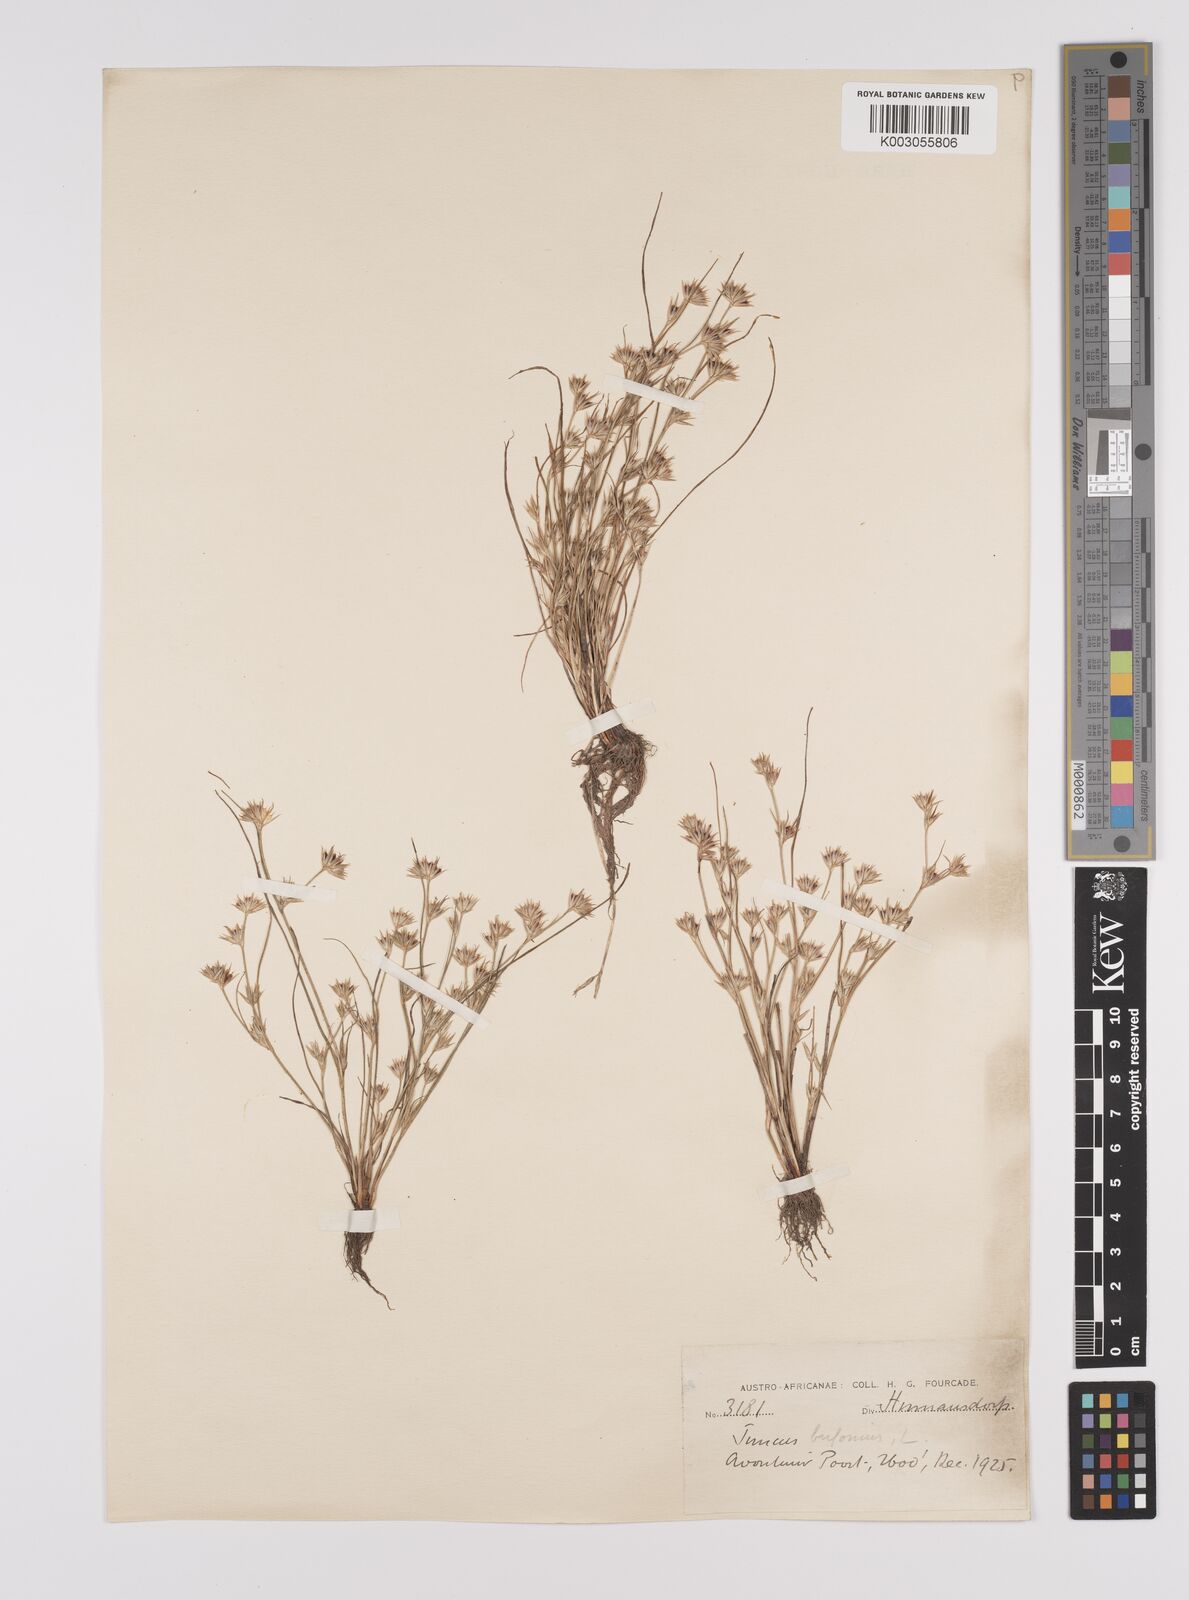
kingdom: Plantae
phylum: Tracheophyta
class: Liliopsida
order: Poales
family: Juncaceae
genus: Juncus
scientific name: Juncus bufonius
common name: Toad rush
